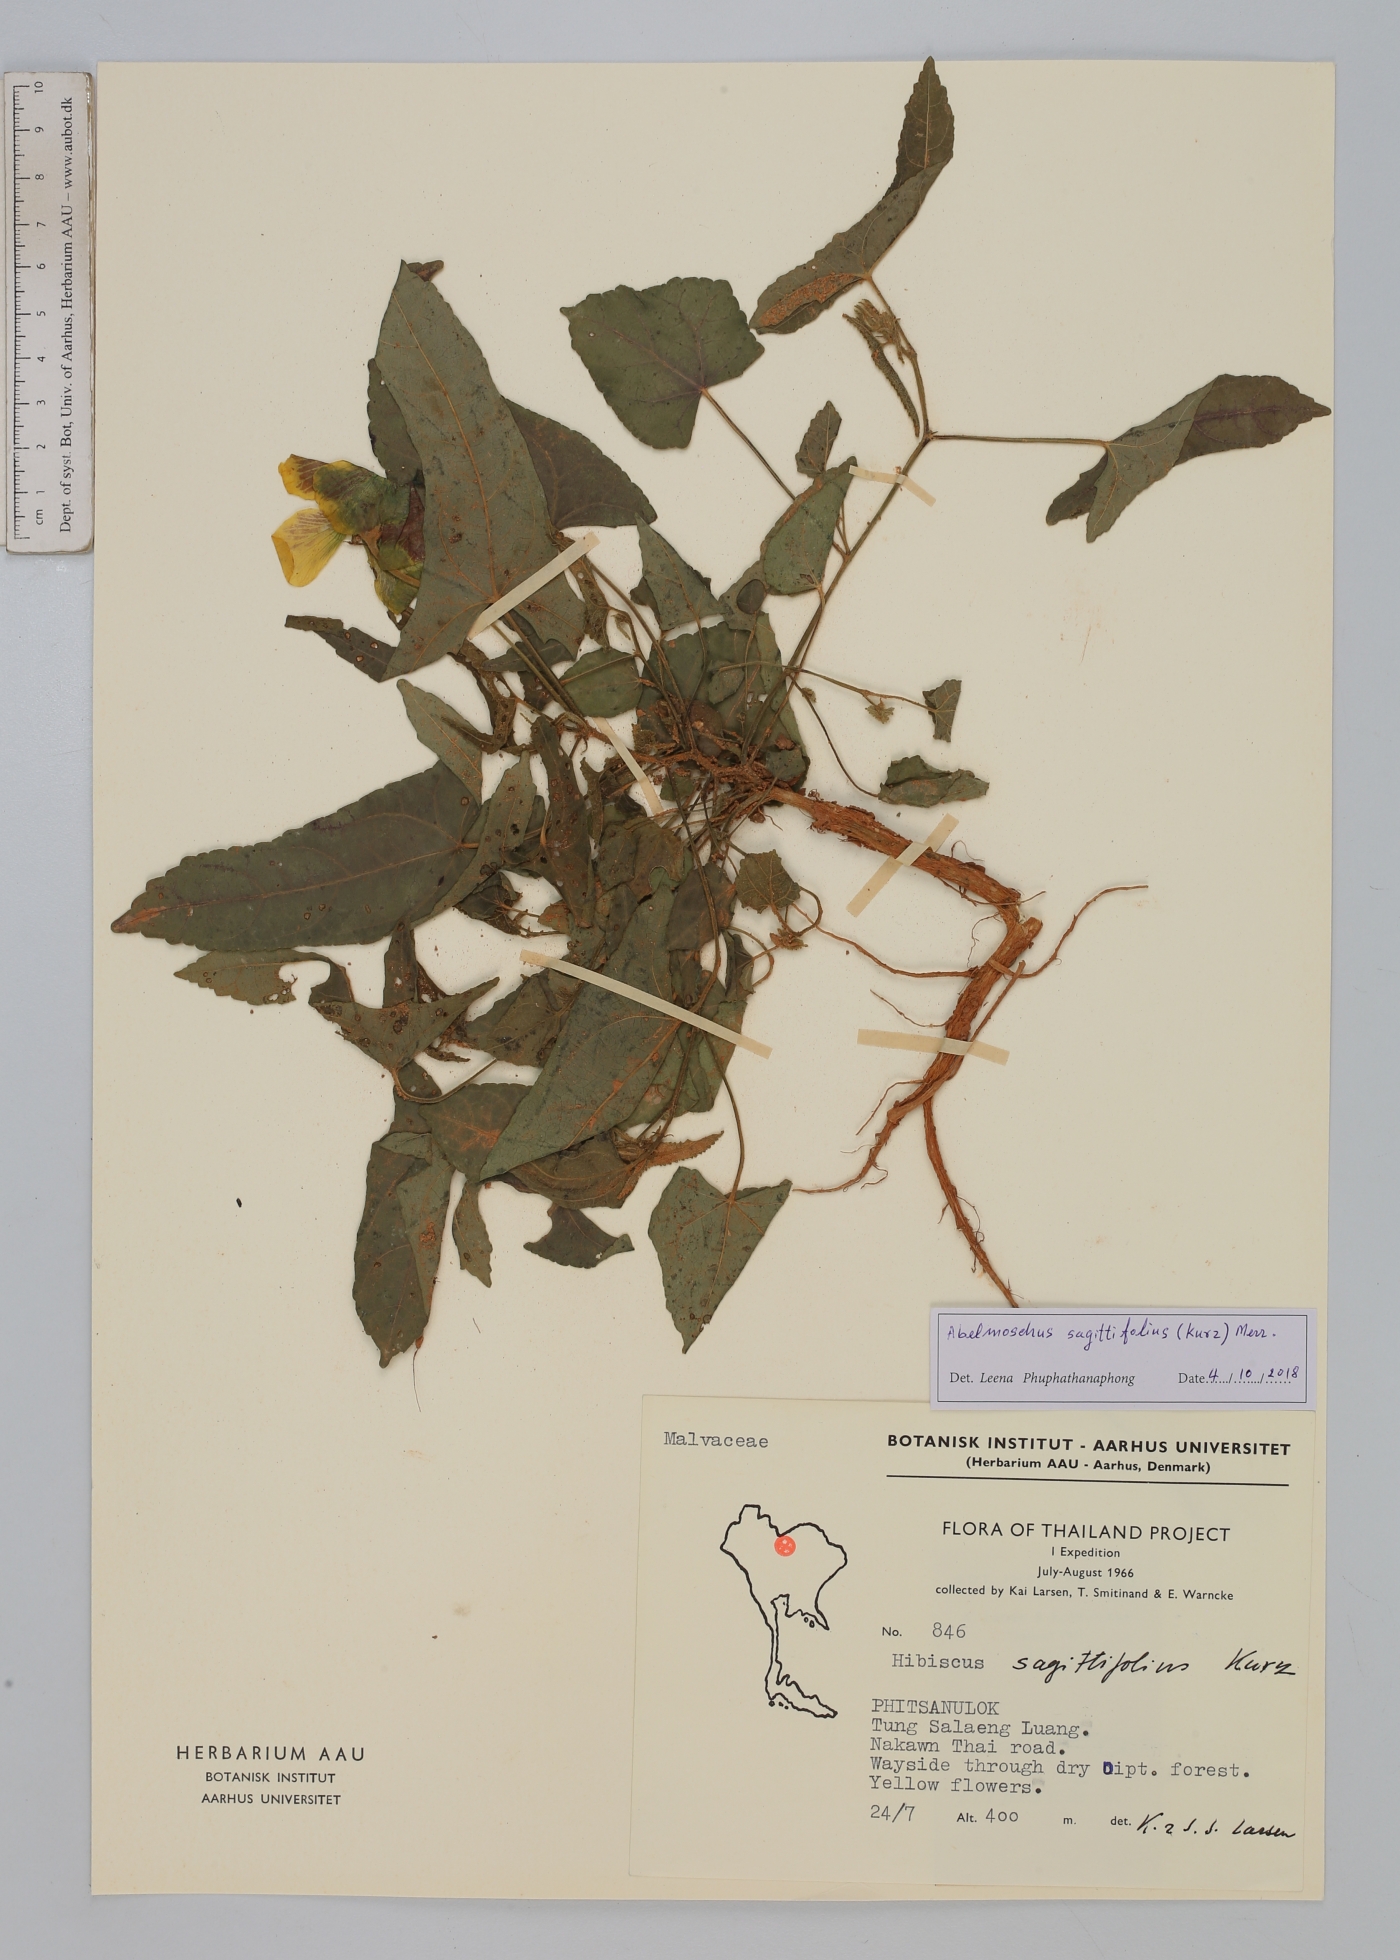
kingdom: Plantae
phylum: Tracheophyta
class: Magnoliopsida
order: Malvales
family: Malvaceae
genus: Abelmoschus
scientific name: Abelmoschus sagittifolius
